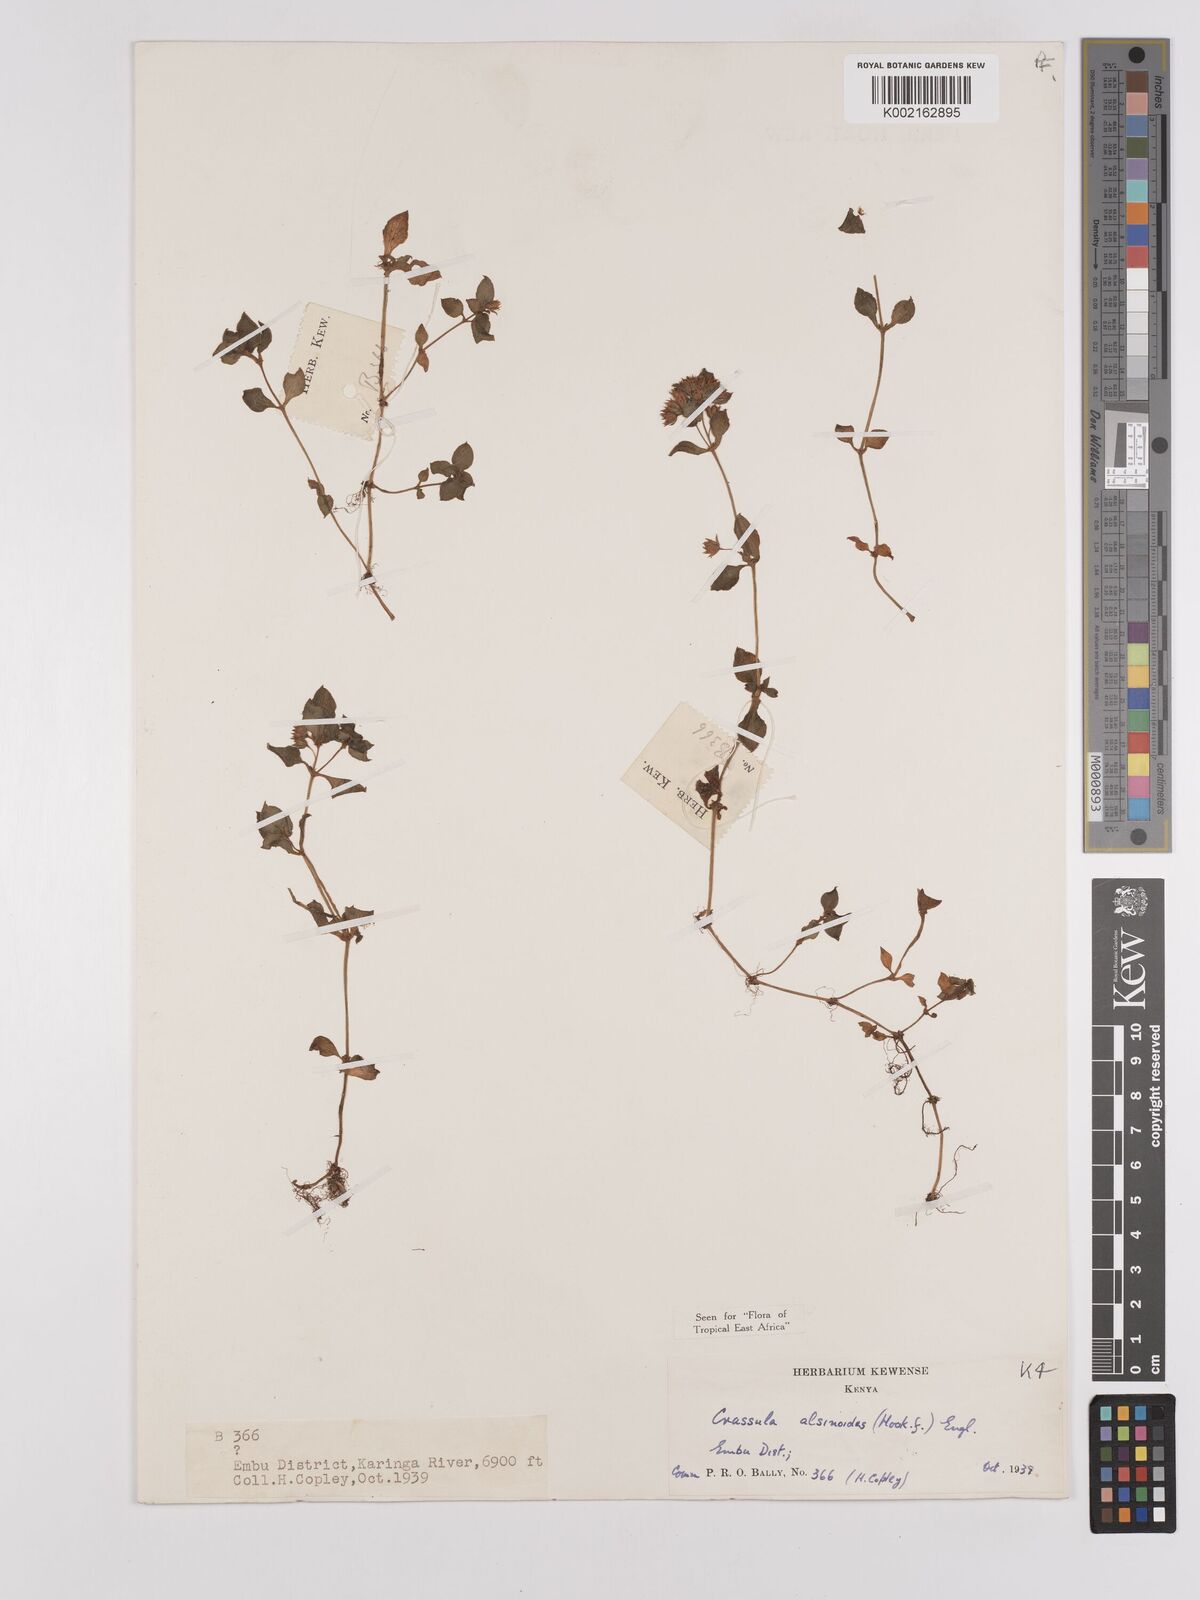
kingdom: Plantae
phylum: Tracheophyta
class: Magnoliopsida
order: Saxifragales
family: Crassulaceae
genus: Crassula
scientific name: Crassula alsinoides
